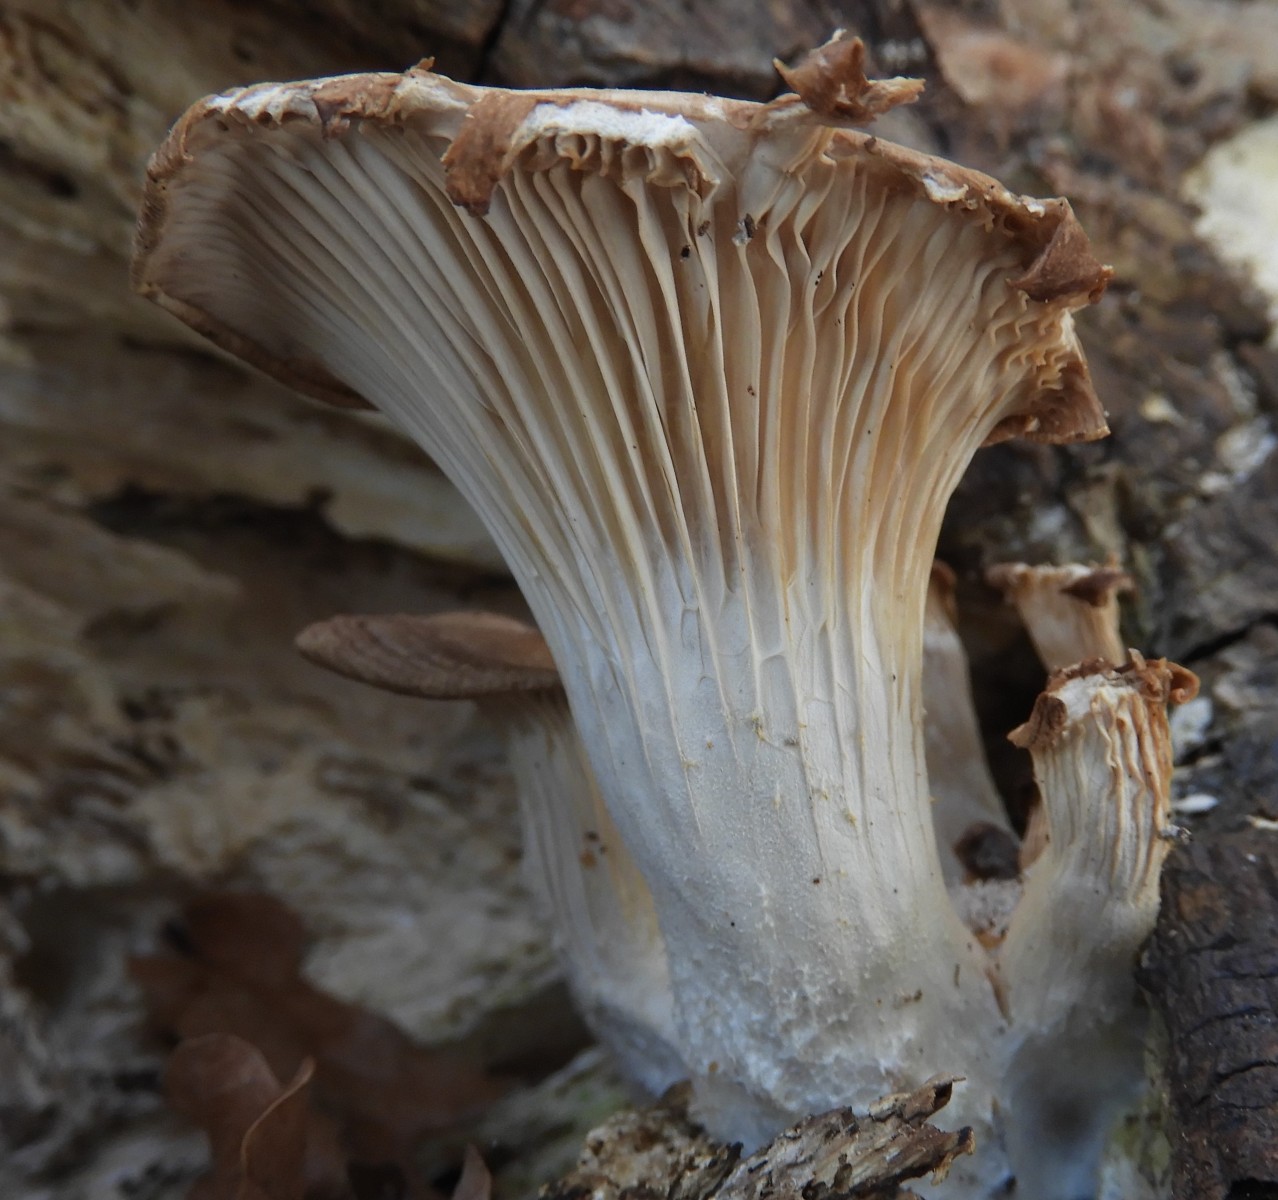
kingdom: Fungi
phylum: Basidiomycota
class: Agaricomycetes
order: Agaricales
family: Pleurotaceae
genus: Pleurotus
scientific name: Pleurotus ostreatus
